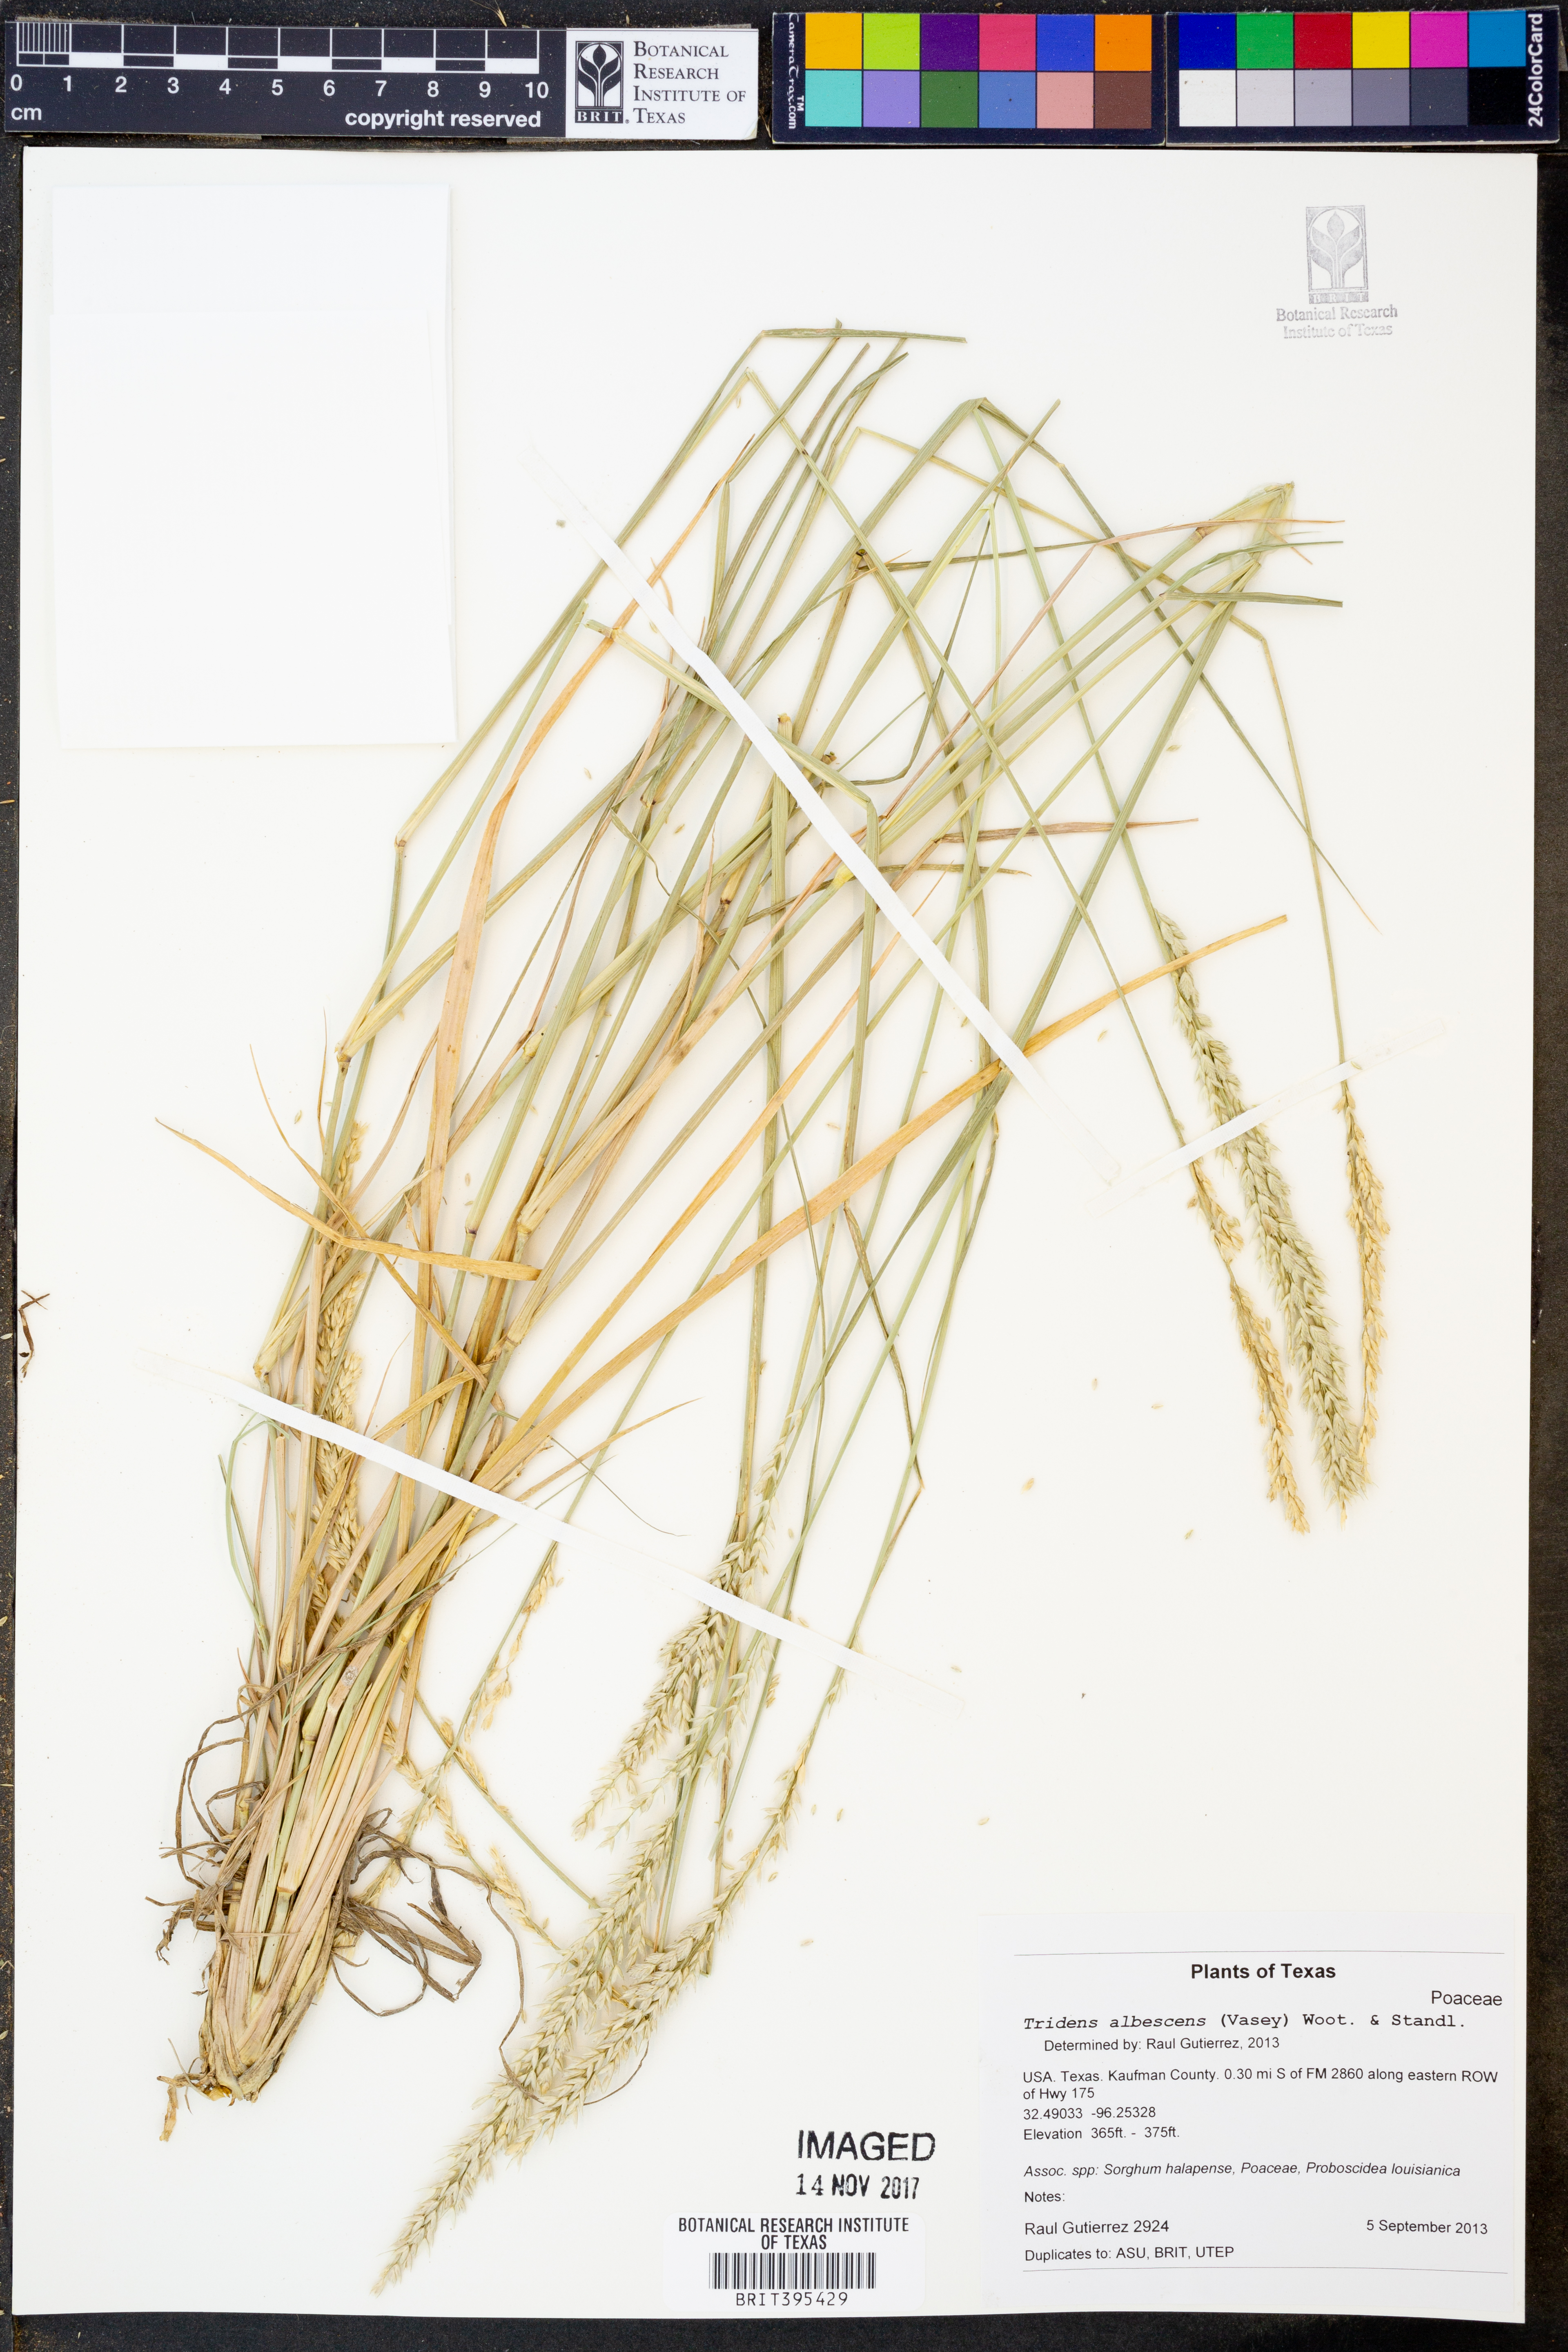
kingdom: Plantae
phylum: Tracheophyta
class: Liliopsida
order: Poales
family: Poaceae
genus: Tridens
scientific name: Tridens albescens
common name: White tridens
